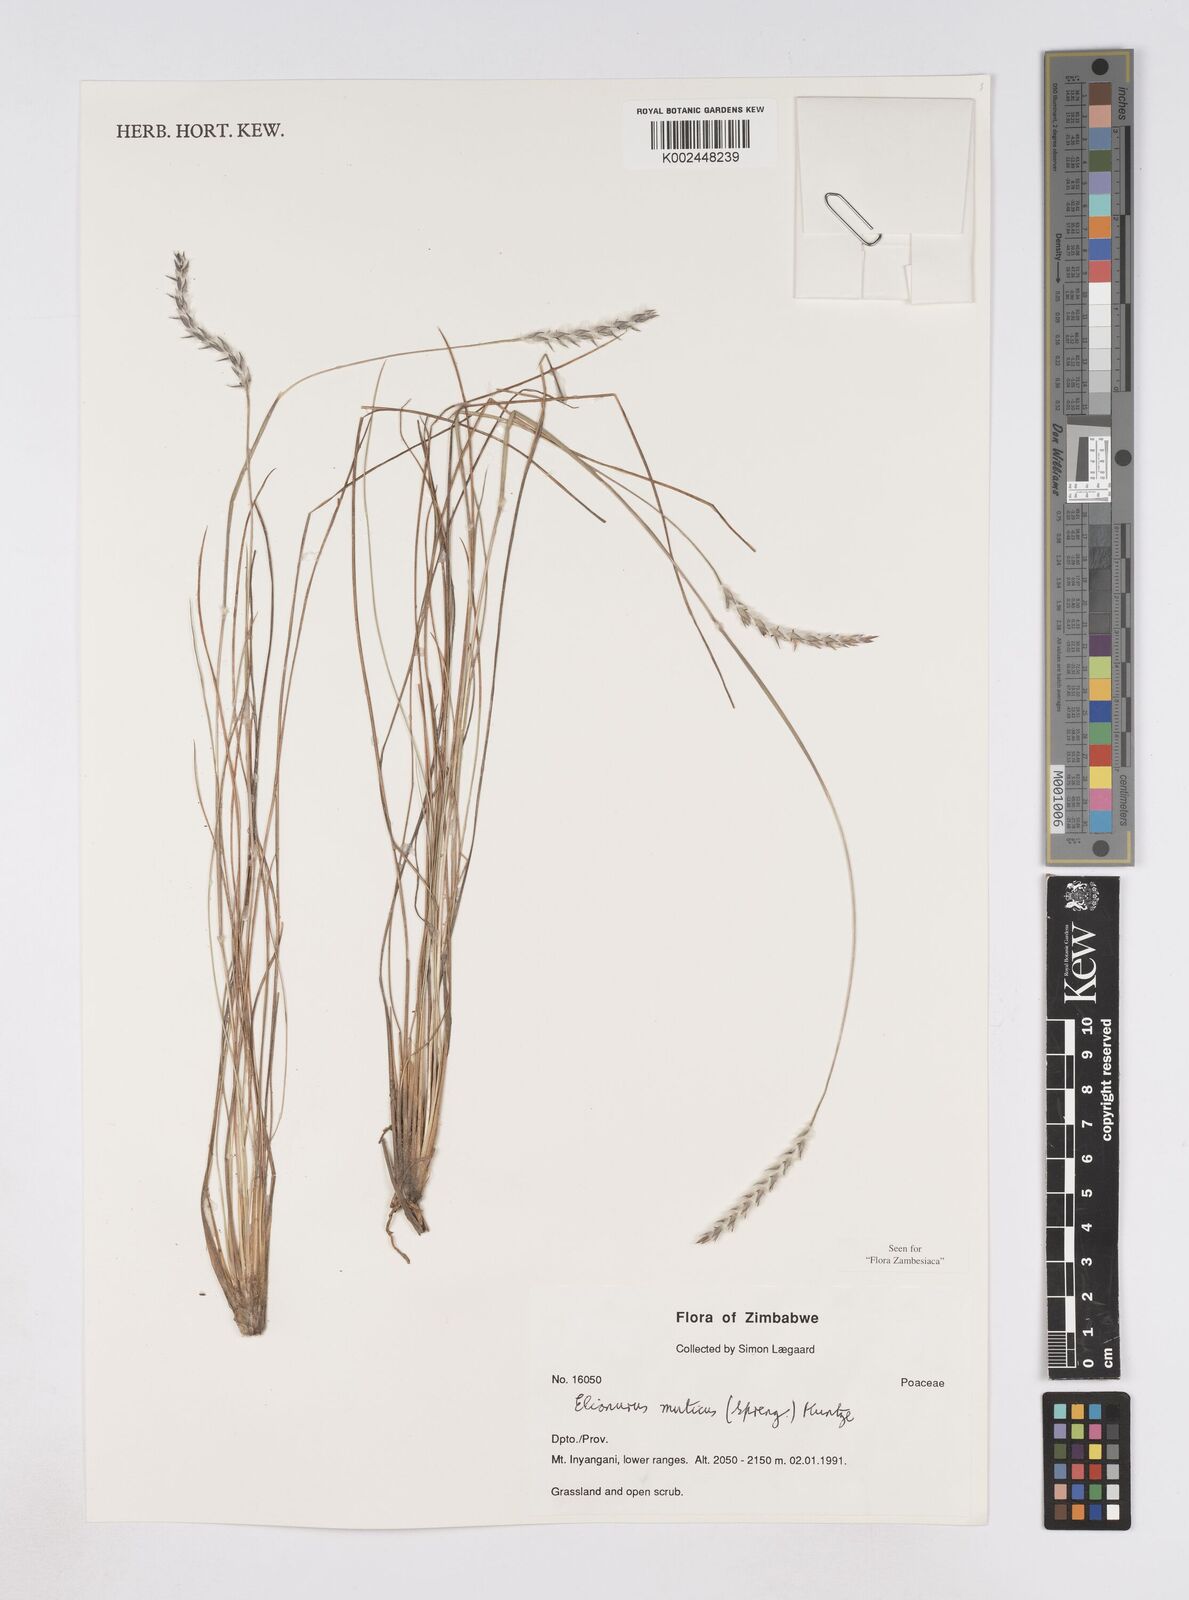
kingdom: Plantae
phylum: Tracheophyta
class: Liliopsida
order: Poales
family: Poaceae
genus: Elionurus
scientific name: Elionurus muticus
